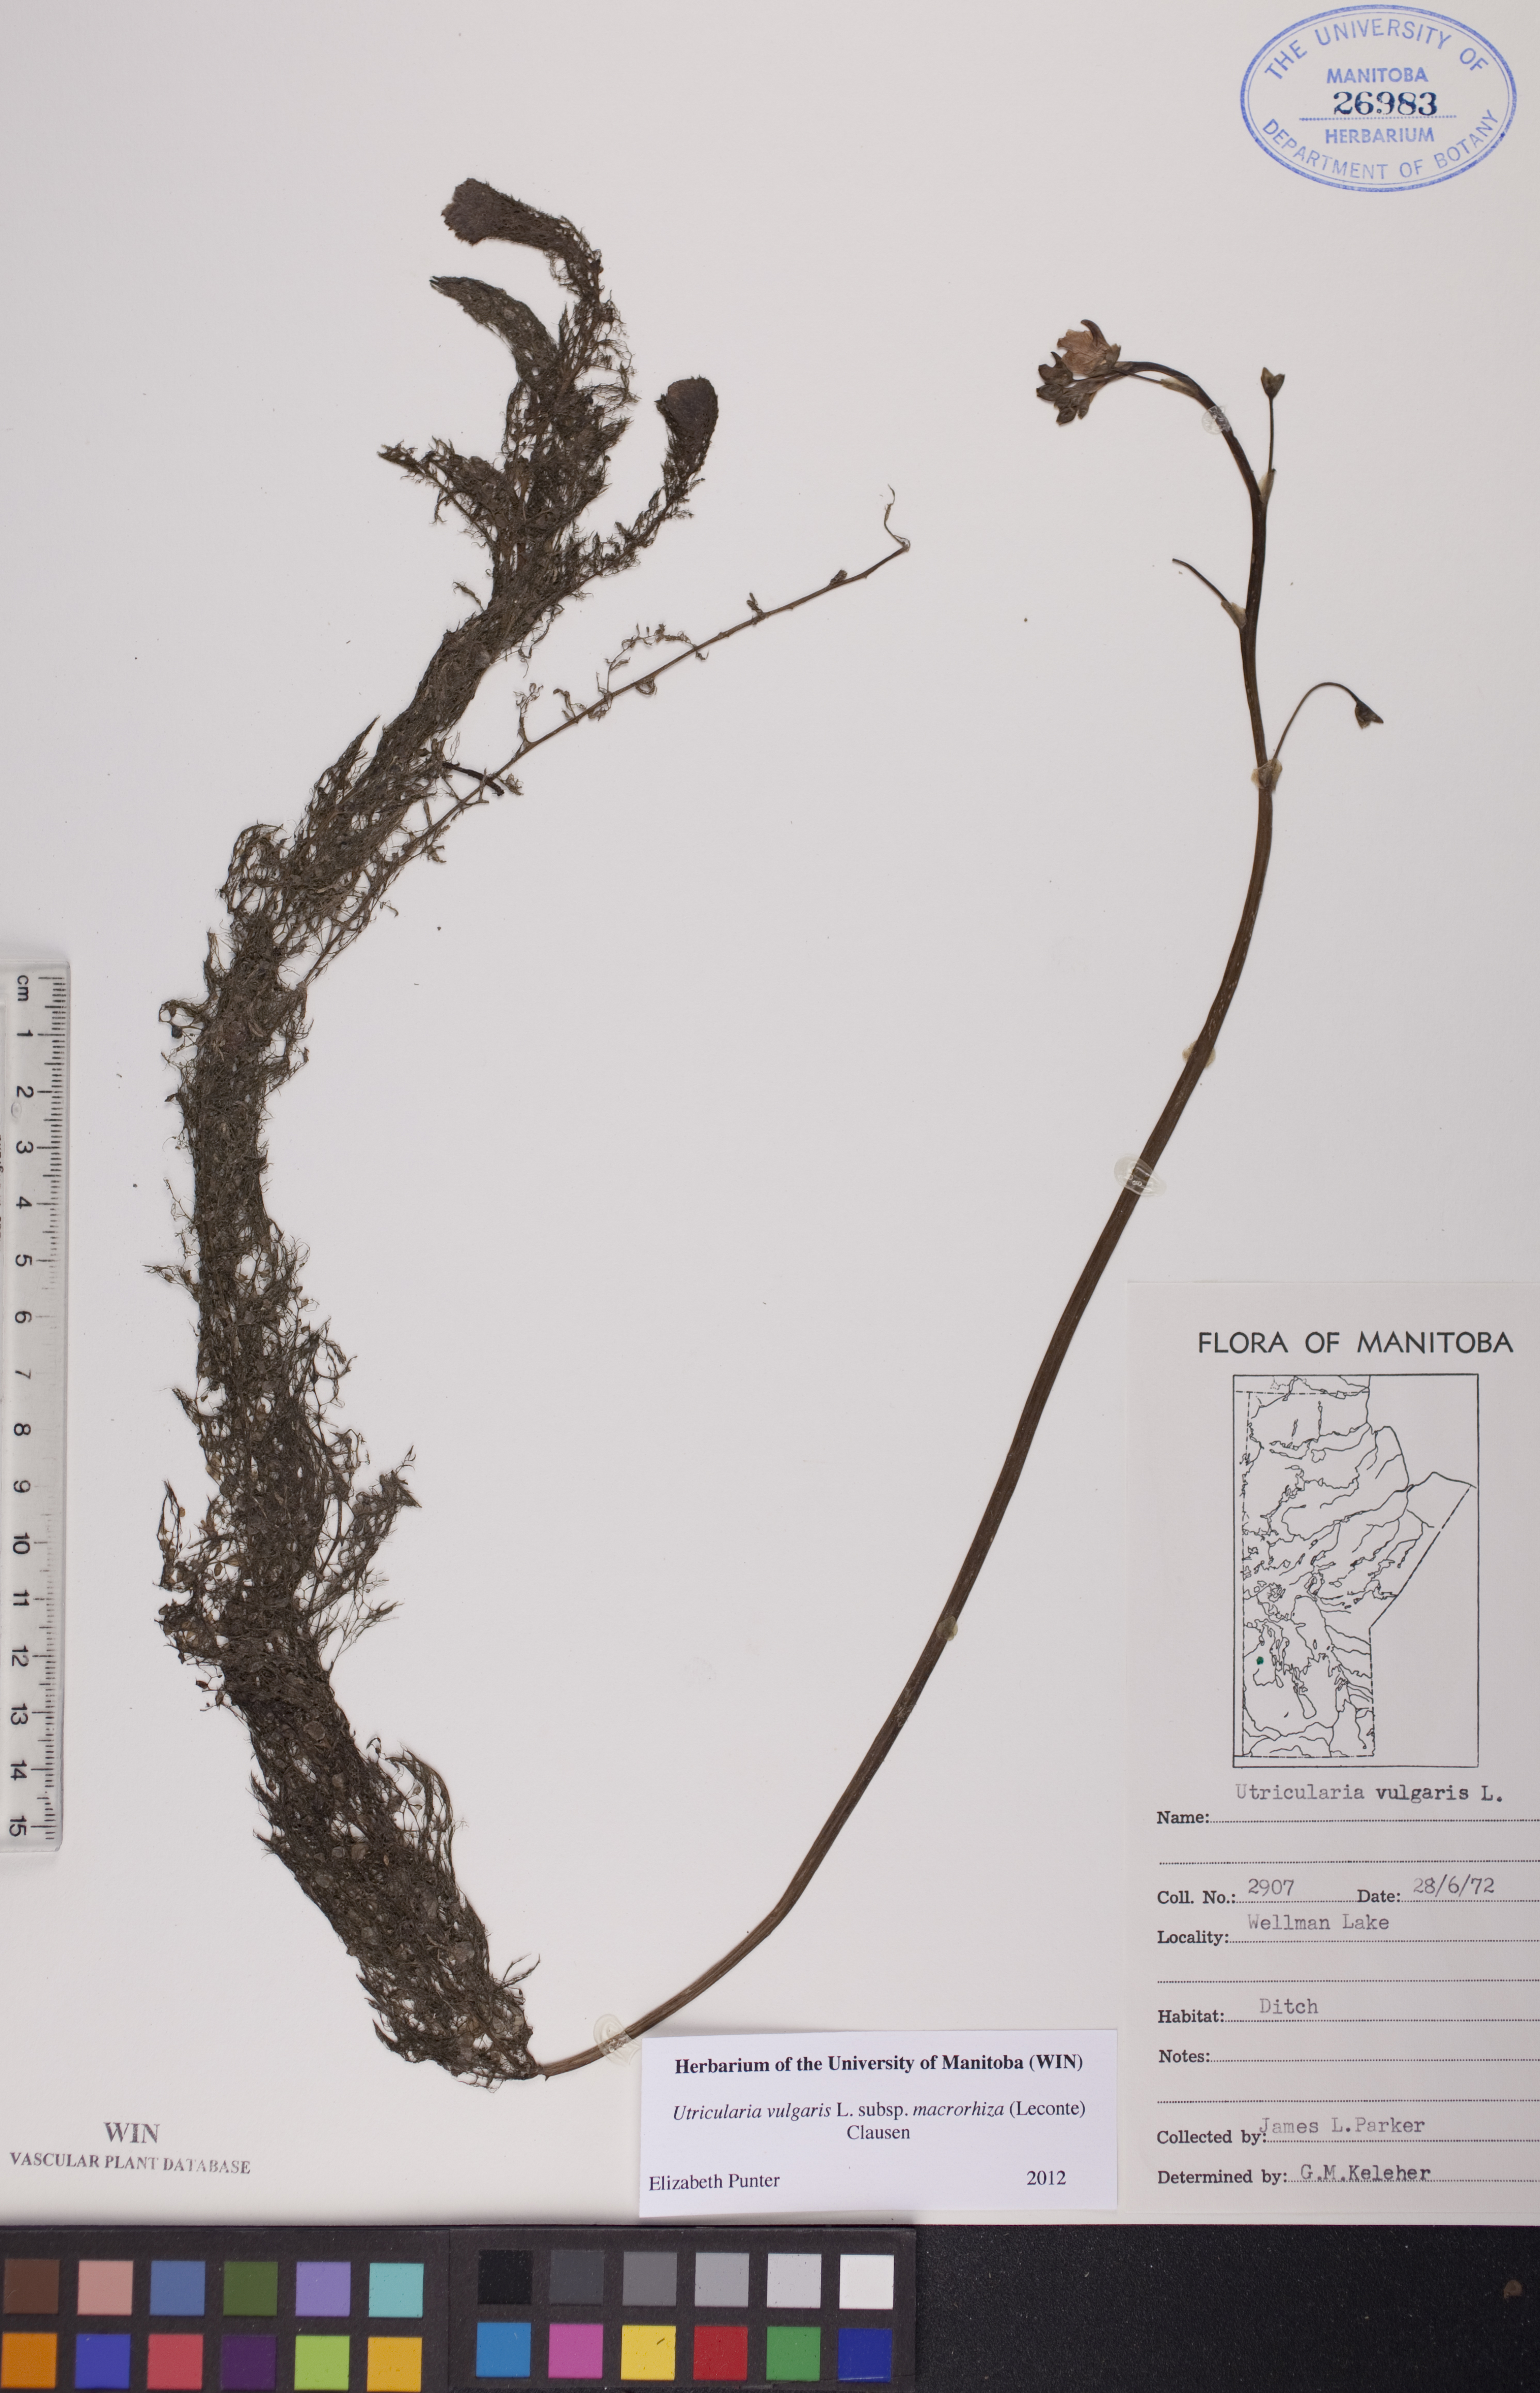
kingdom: Plantae
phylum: Tracheophyta
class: Magnoliopsida
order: Lamiales
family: Lentibulariaceae
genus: Utricularia
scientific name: Utricularia macrorhiza
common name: Common bladderwort
